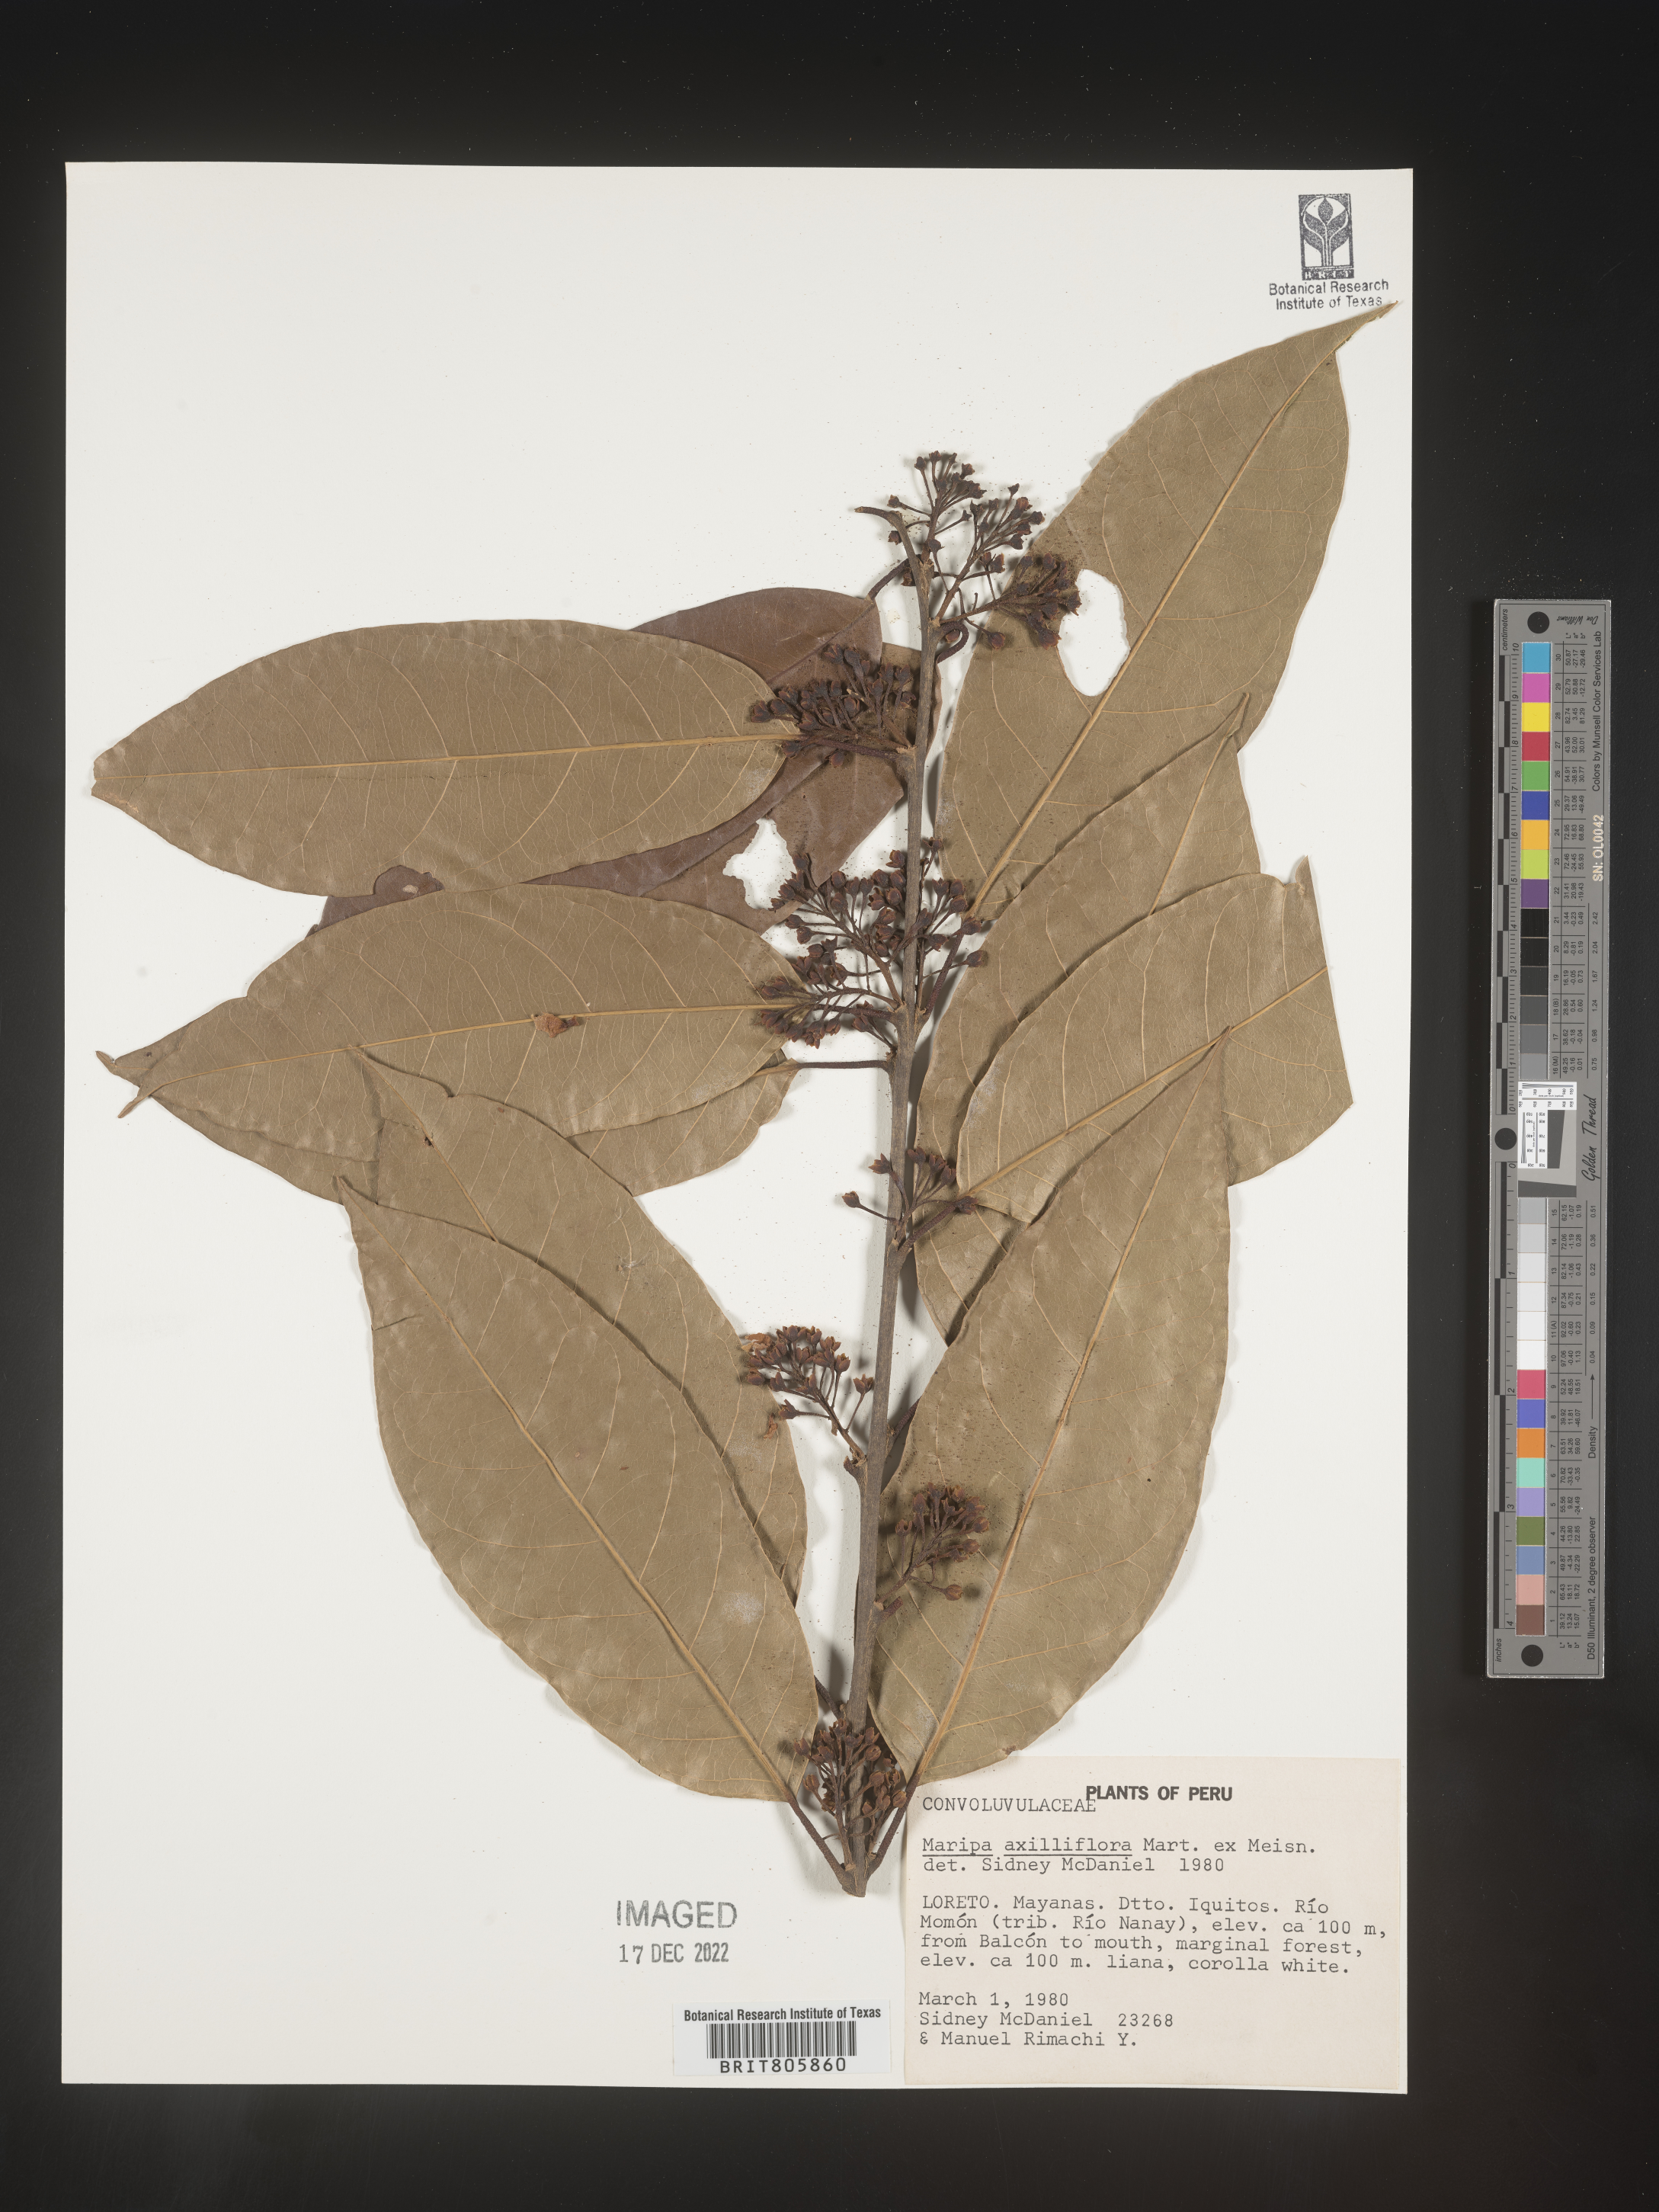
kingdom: Plantae
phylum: Tracheophyta
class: Magnoliopsida
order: Solanales
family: Convolvulaceae
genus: Maripa
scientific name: Maripa
